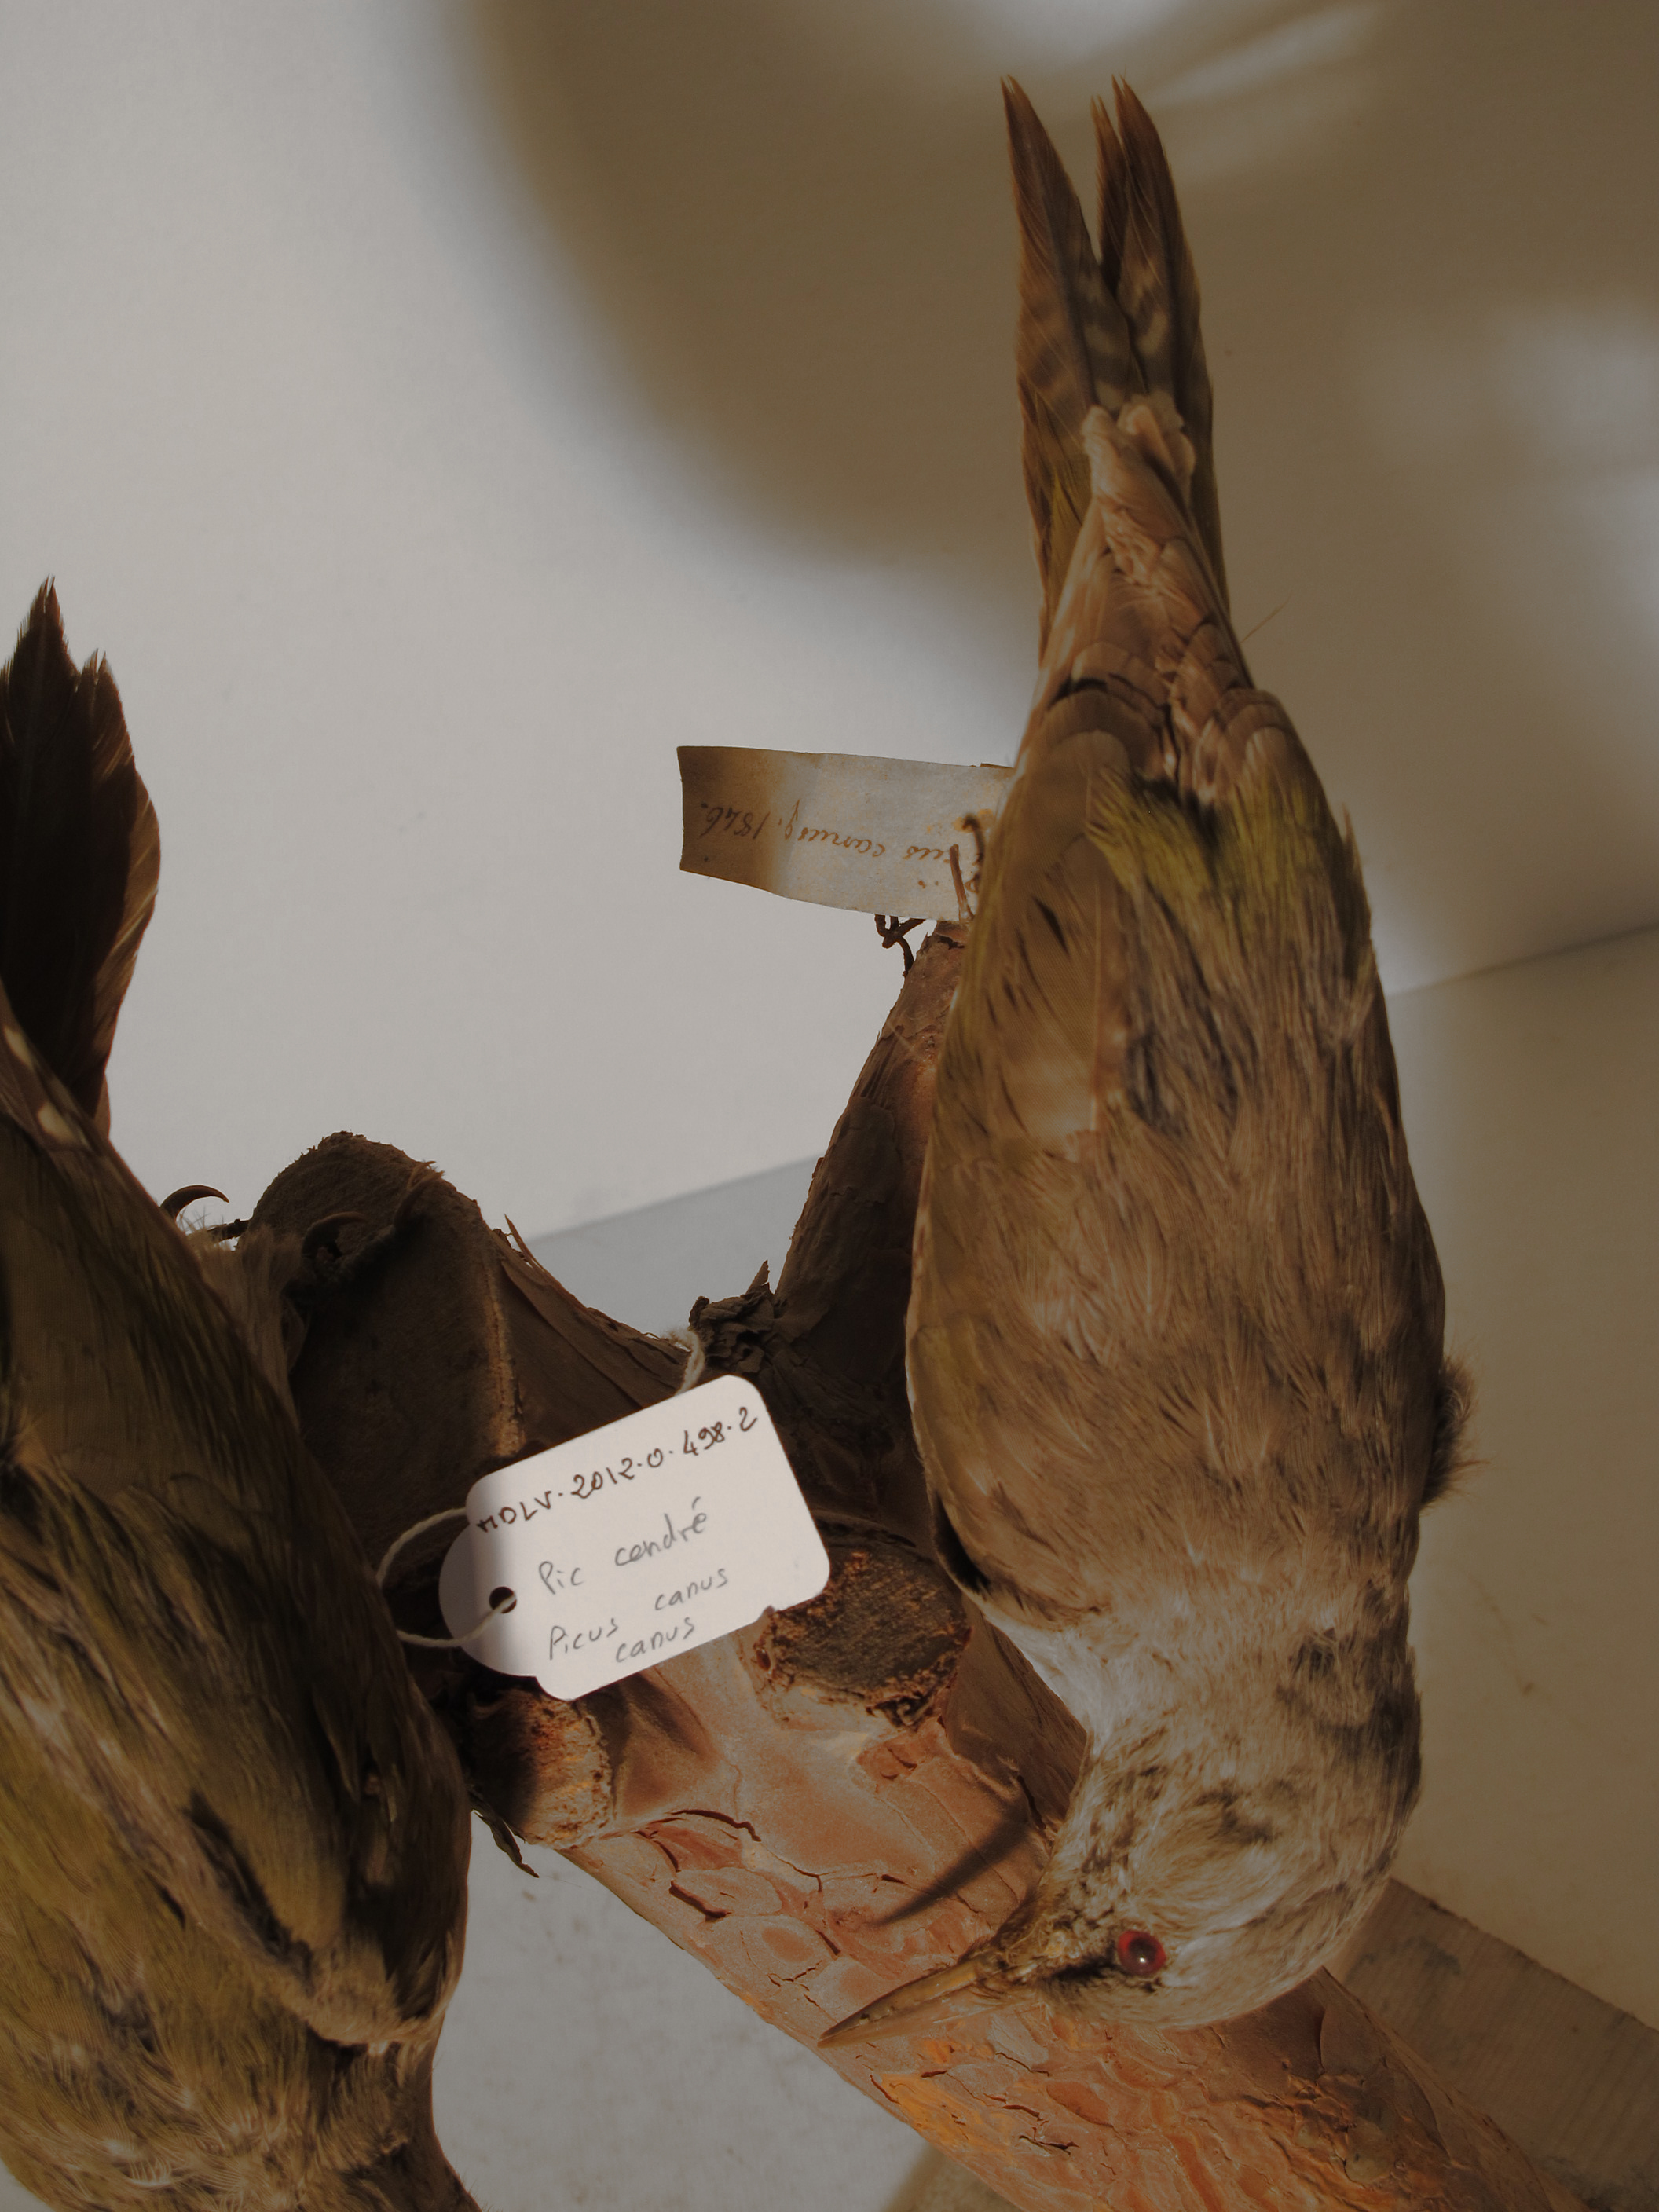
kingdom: Animalia
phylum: Chordata
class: Aves
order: Piciformes
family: Picidae
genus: Picus
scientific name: Picus canus
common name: Grey-faced Woodpecker
